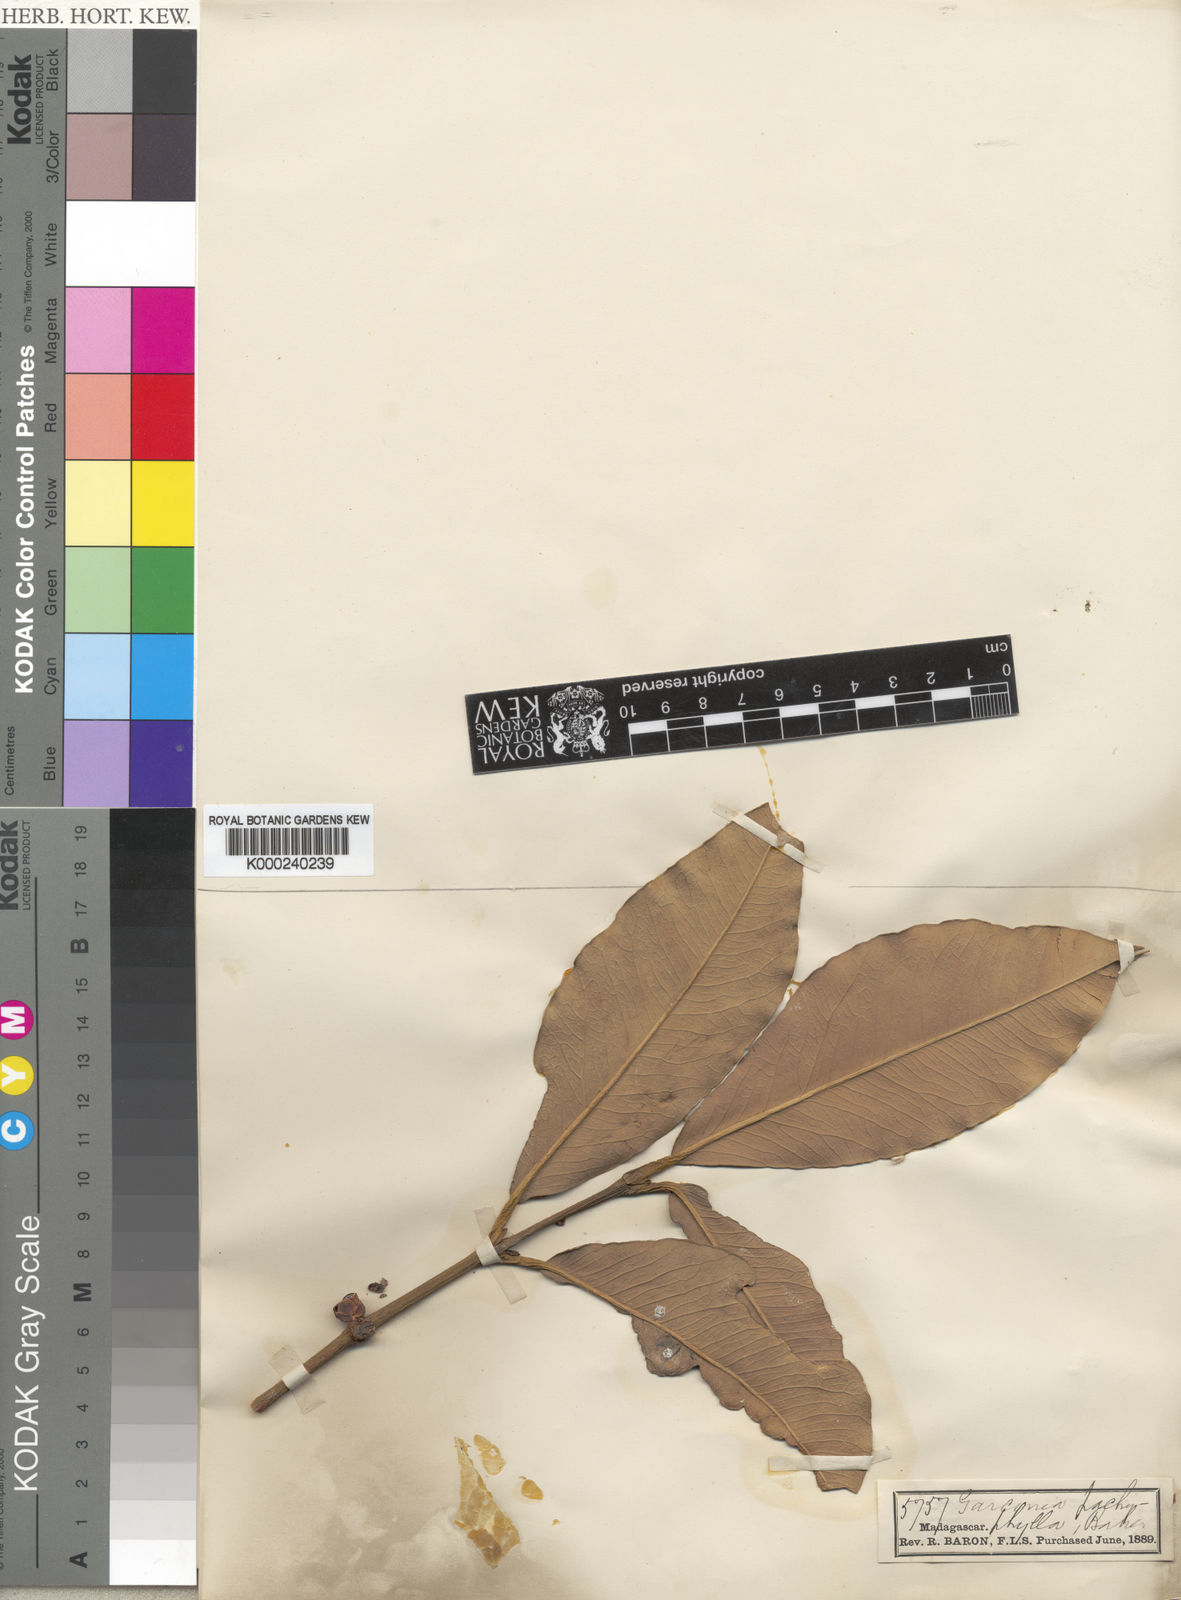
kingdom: Plantae
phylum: Tracheophyta
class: Magnoliopsida
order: Malpighiales
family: Clusiaceae
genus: Garcinia
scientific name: Garcinia madagascariensis
